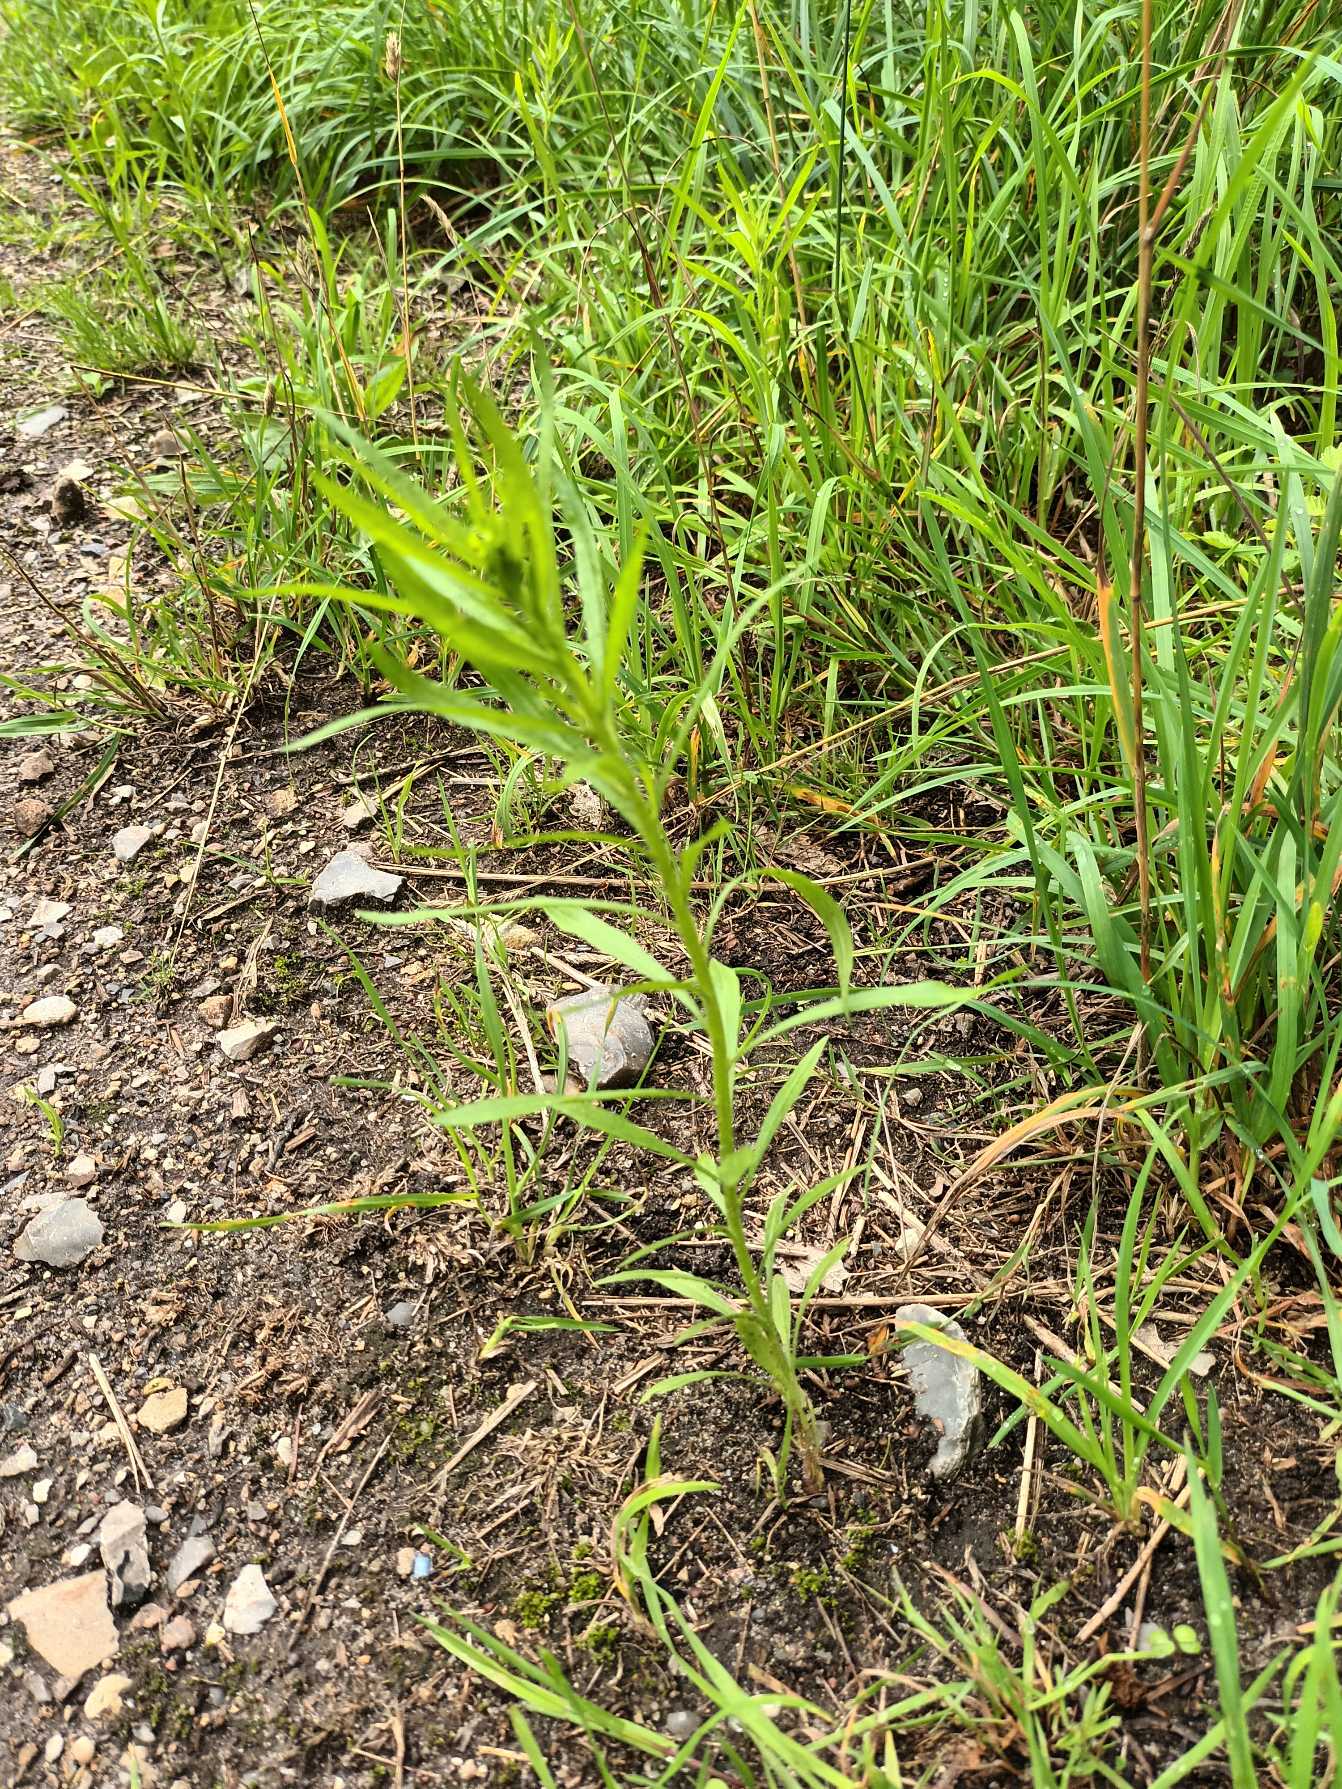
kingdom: Plantae
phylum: Tracheophyta
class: Magnoliopsida
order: Asterales
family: Asteraceae
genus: Erigeron
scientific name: Erigeron canadensis
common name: Kanadisk bakkestjerne
